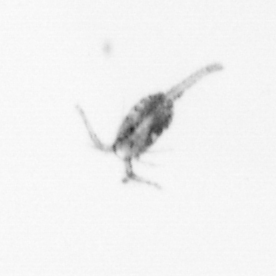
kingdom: Animalia
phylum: Arthropoda
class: Copepoda
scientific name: Copepoda
